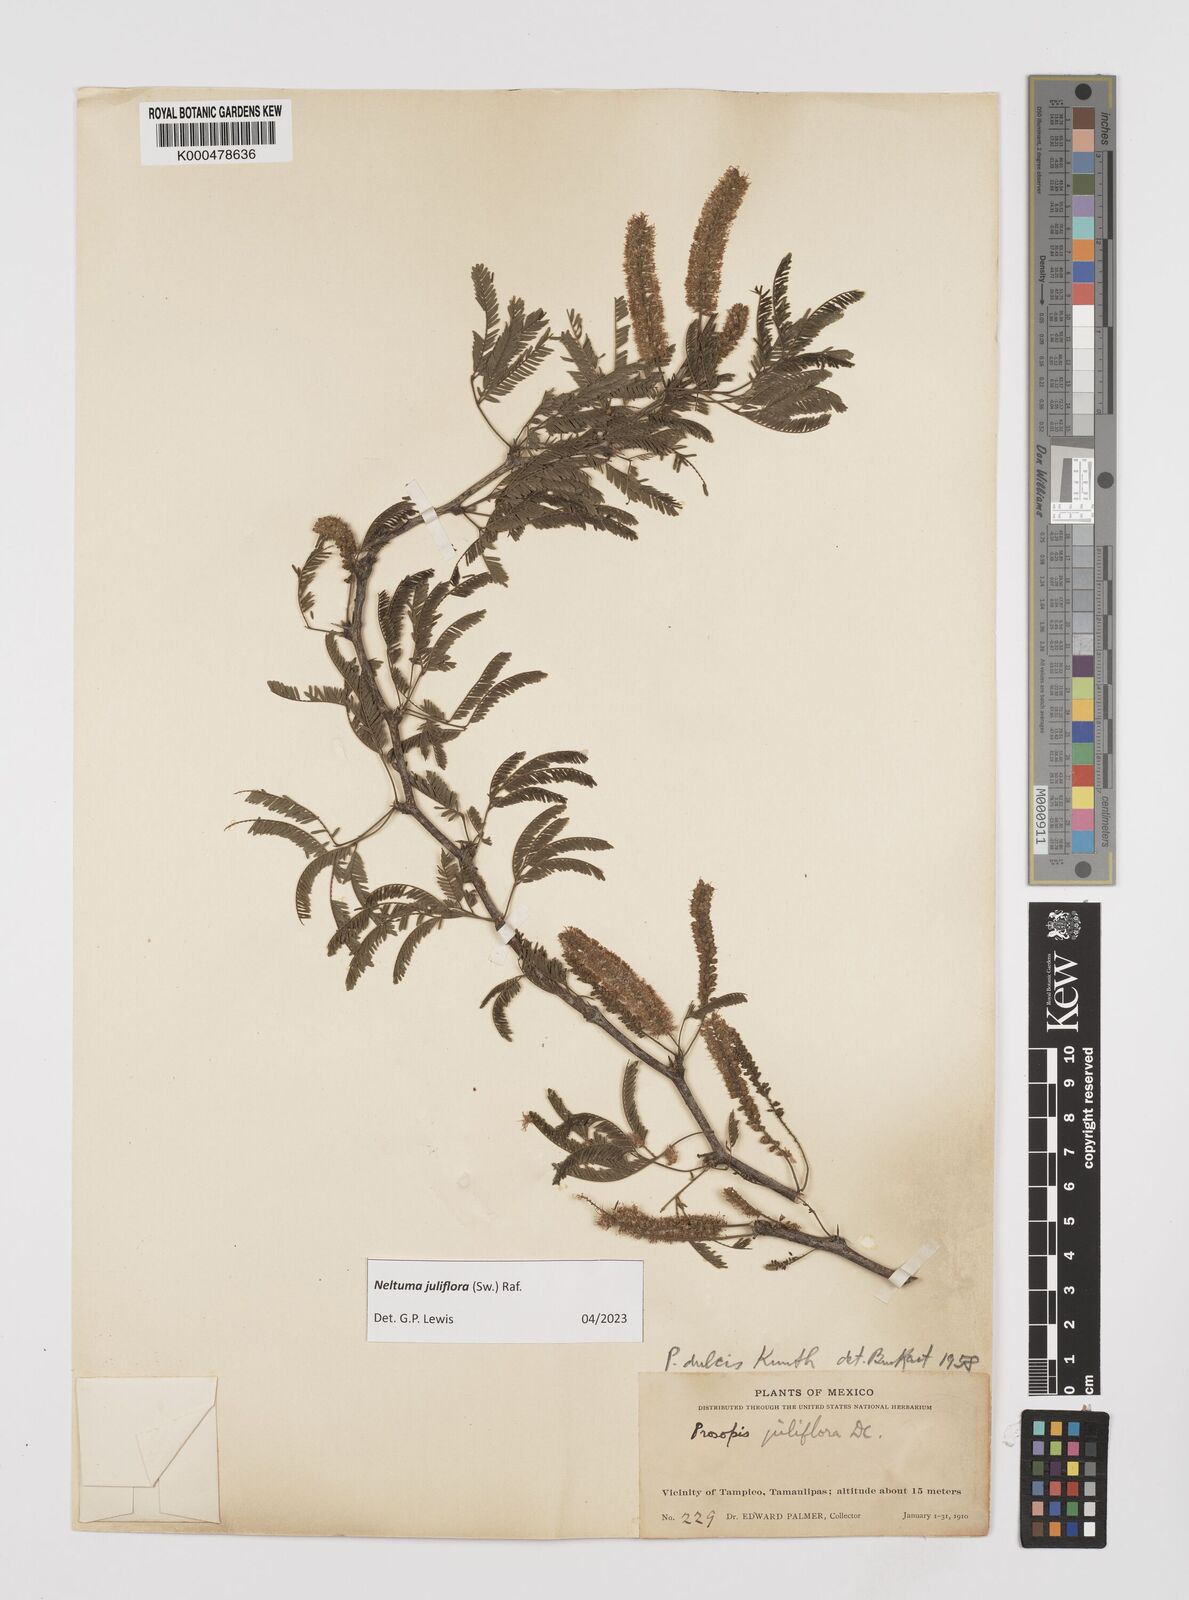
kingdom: Plantae
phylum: Tracheophyta
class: Magnoliopsida
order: Fabales
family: Fabaceae
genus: Prosopis
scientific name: Prosopis laevigata
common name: Smooth mesquite
